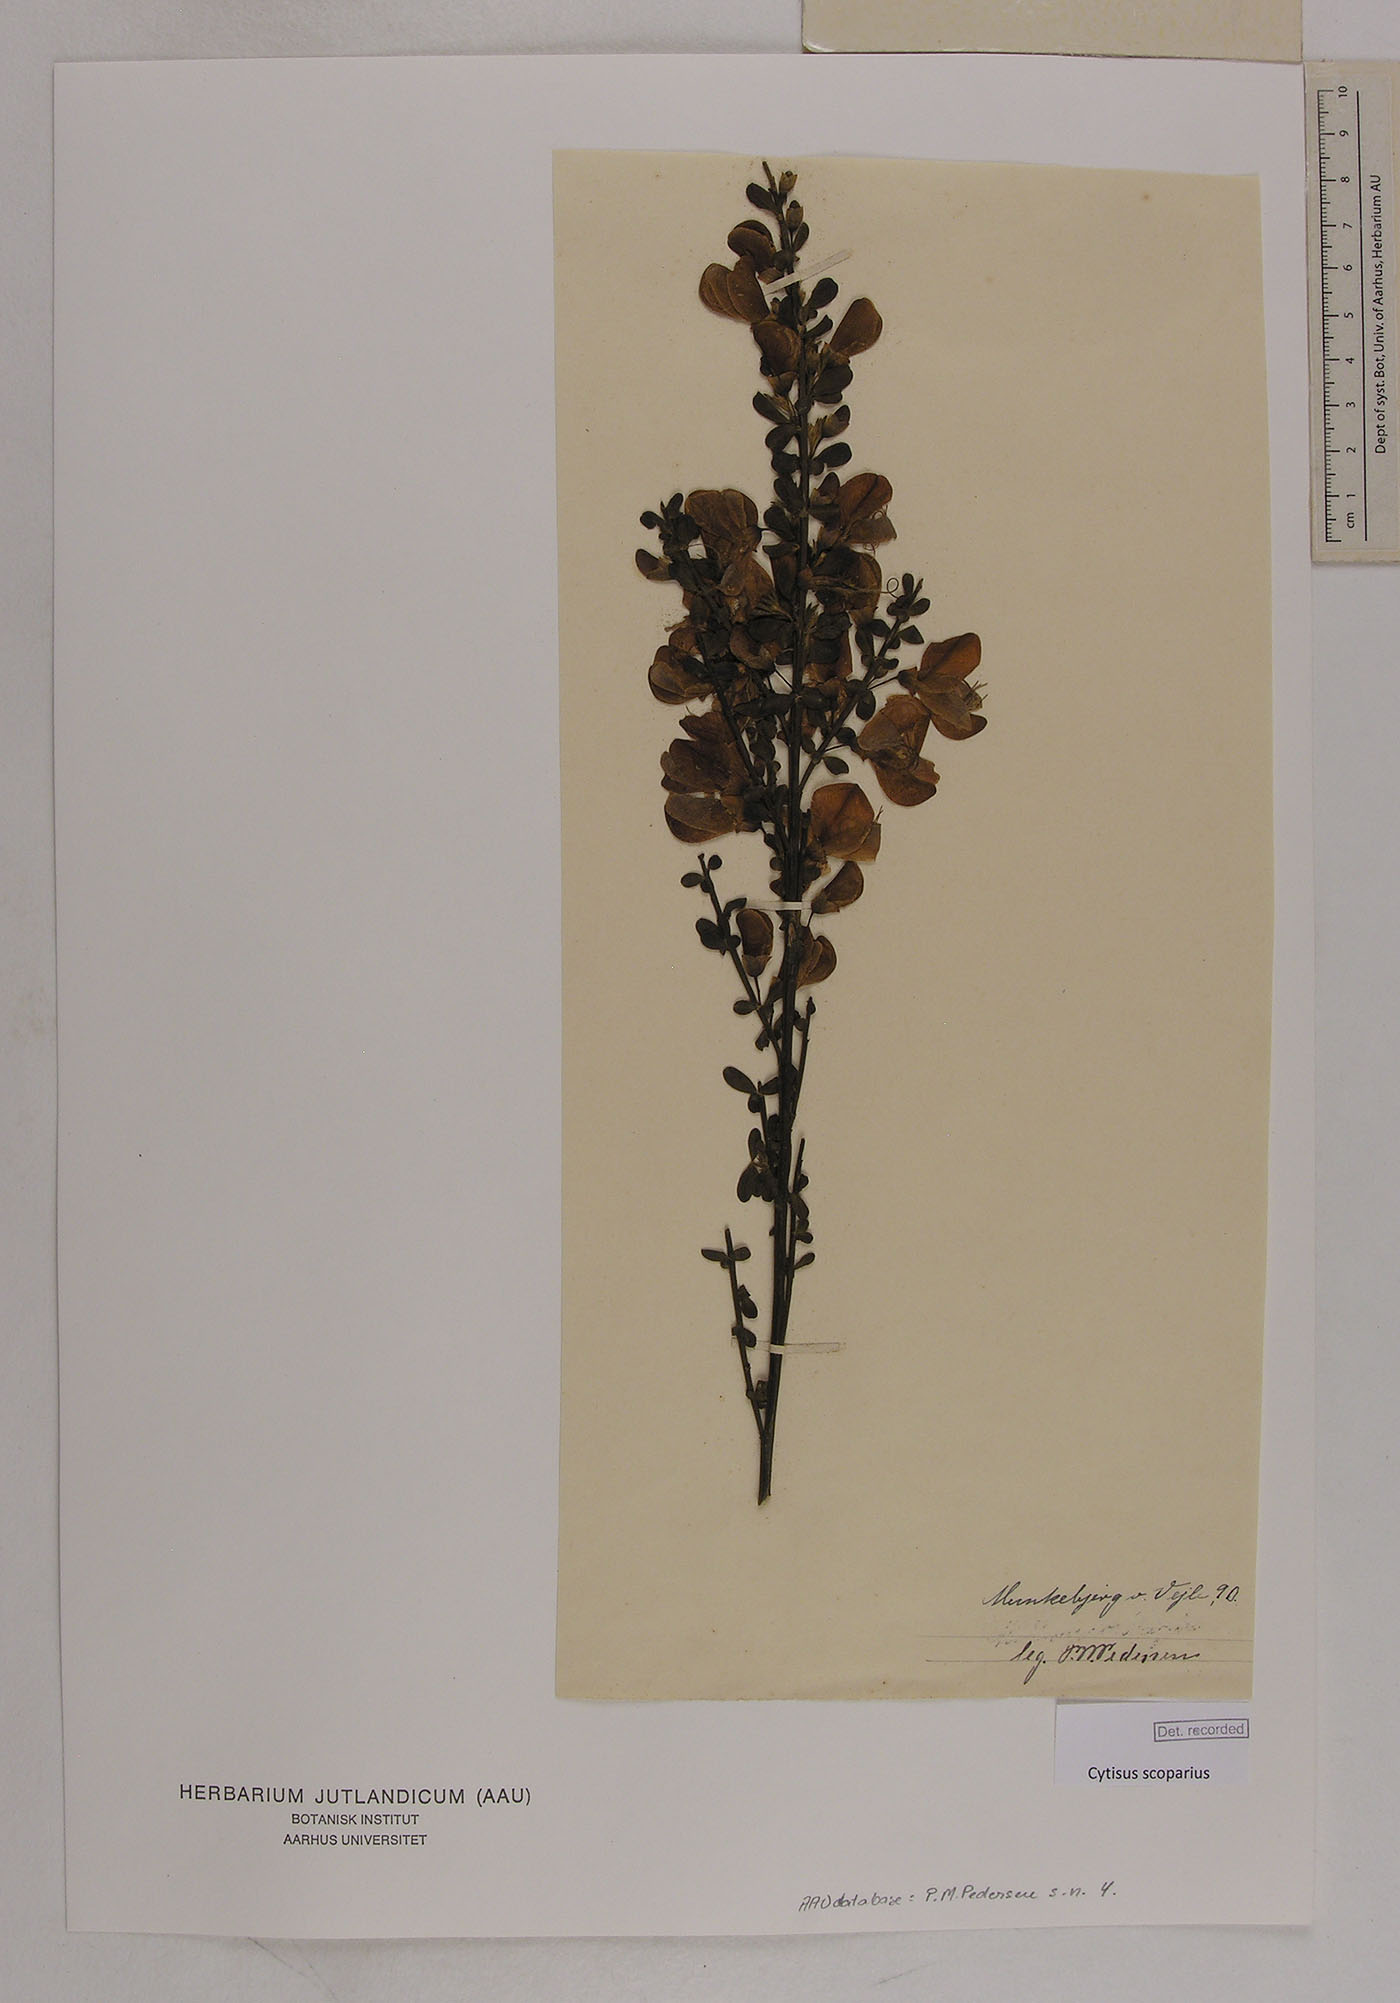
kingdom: Plantae
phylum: Tracheophyta
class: Magnoliopsida
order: Fabales
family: Fabaceae
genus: Cytisus
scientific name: Cytisus scoparius
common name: Scotch broom
